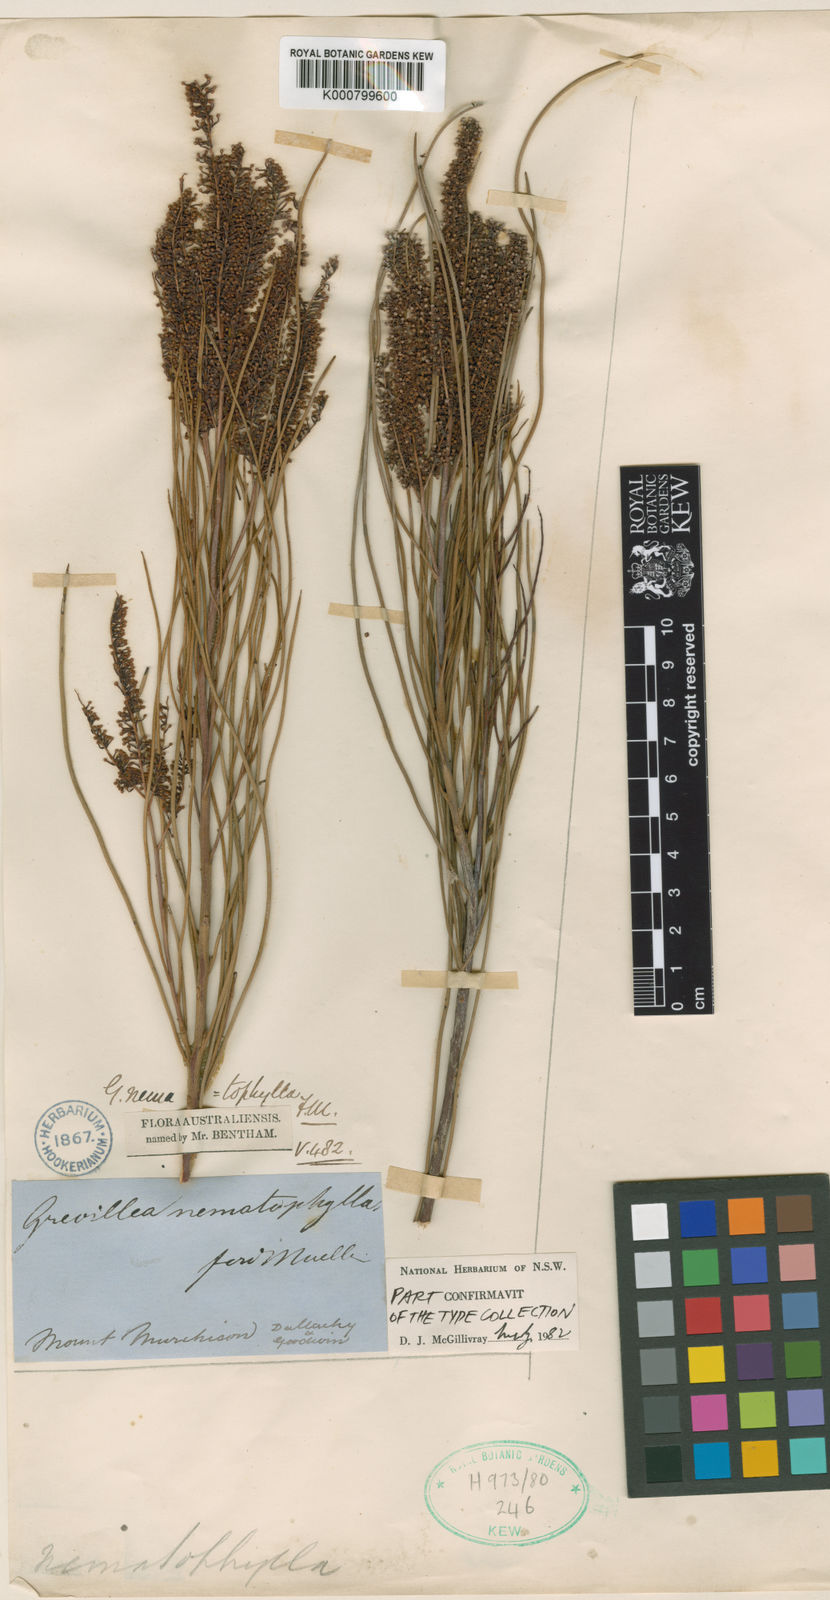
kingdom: Plantae
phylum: Tracheophyta
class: Magnoliopsida
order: Proteales
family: Proteaceae
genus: Grevillea
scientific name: Grevillea nematophylla
